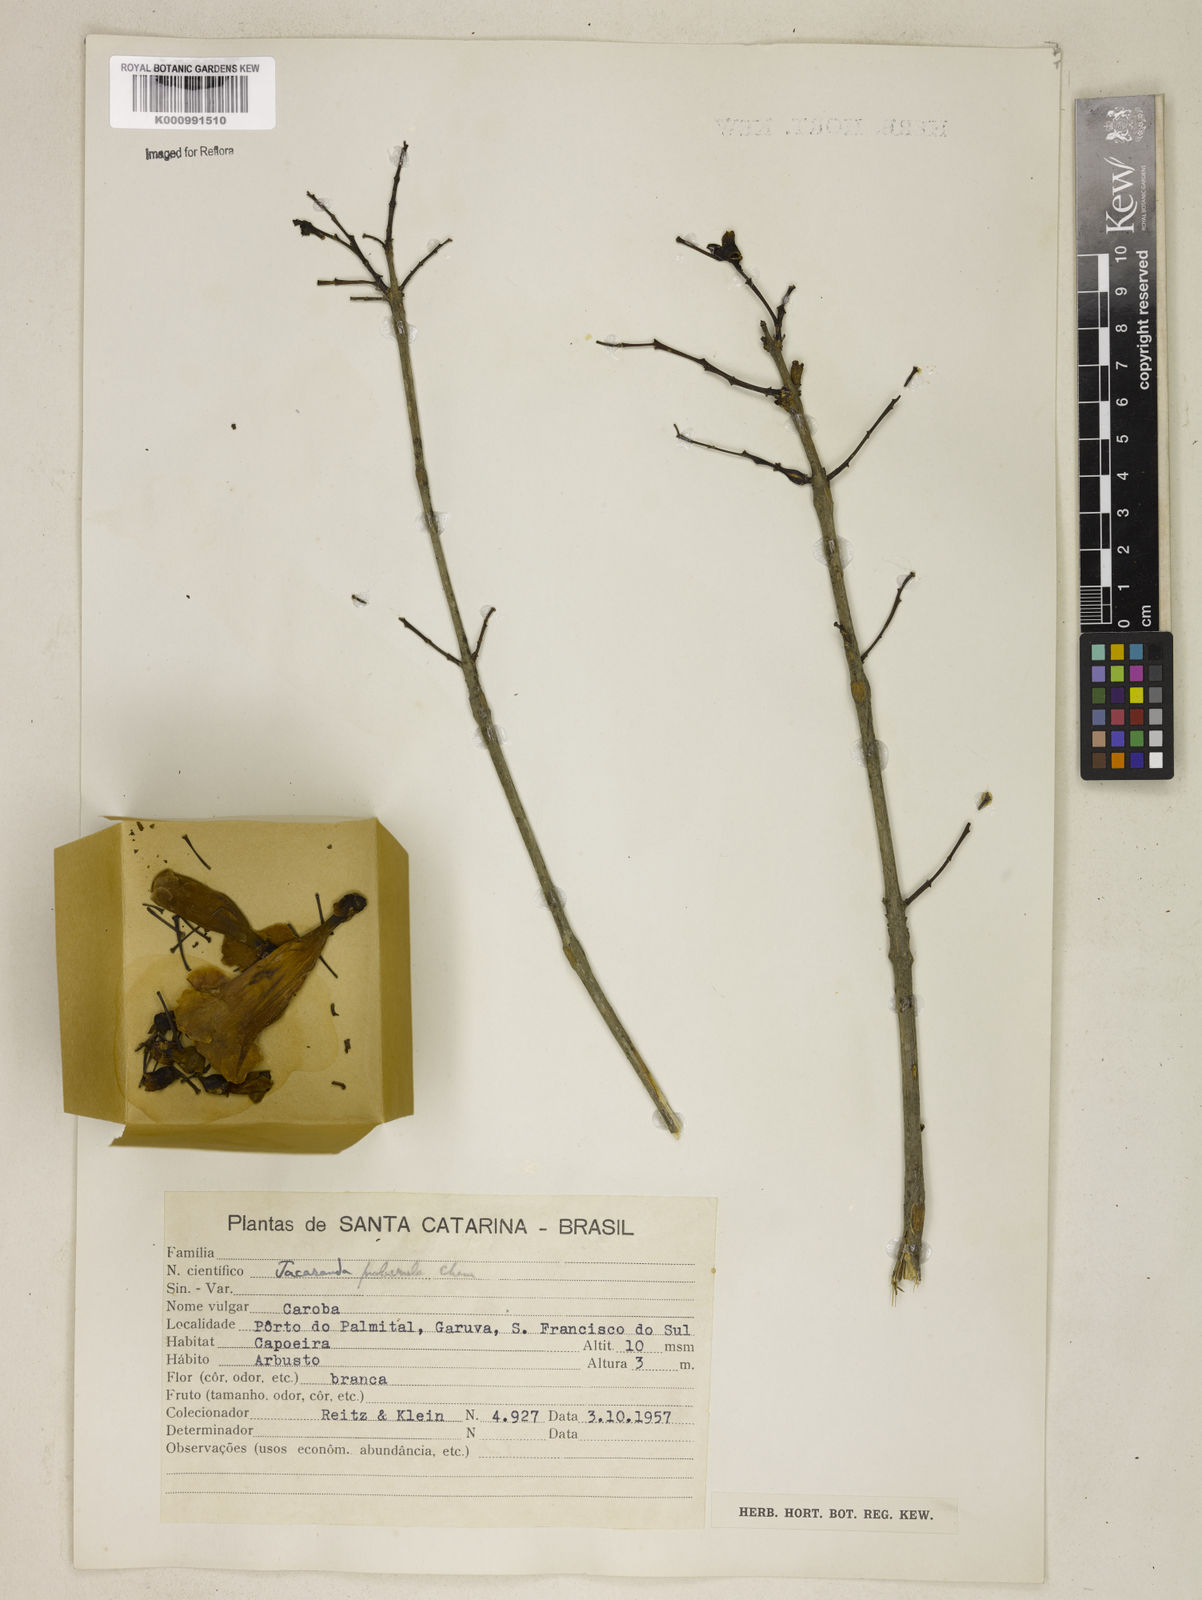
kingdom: Plantae
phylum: Tracheophyta
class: Magnoliopsida
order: Lamiales
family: Bignoniaceae
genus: Jacaranda
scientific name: Jacaranda puberula
